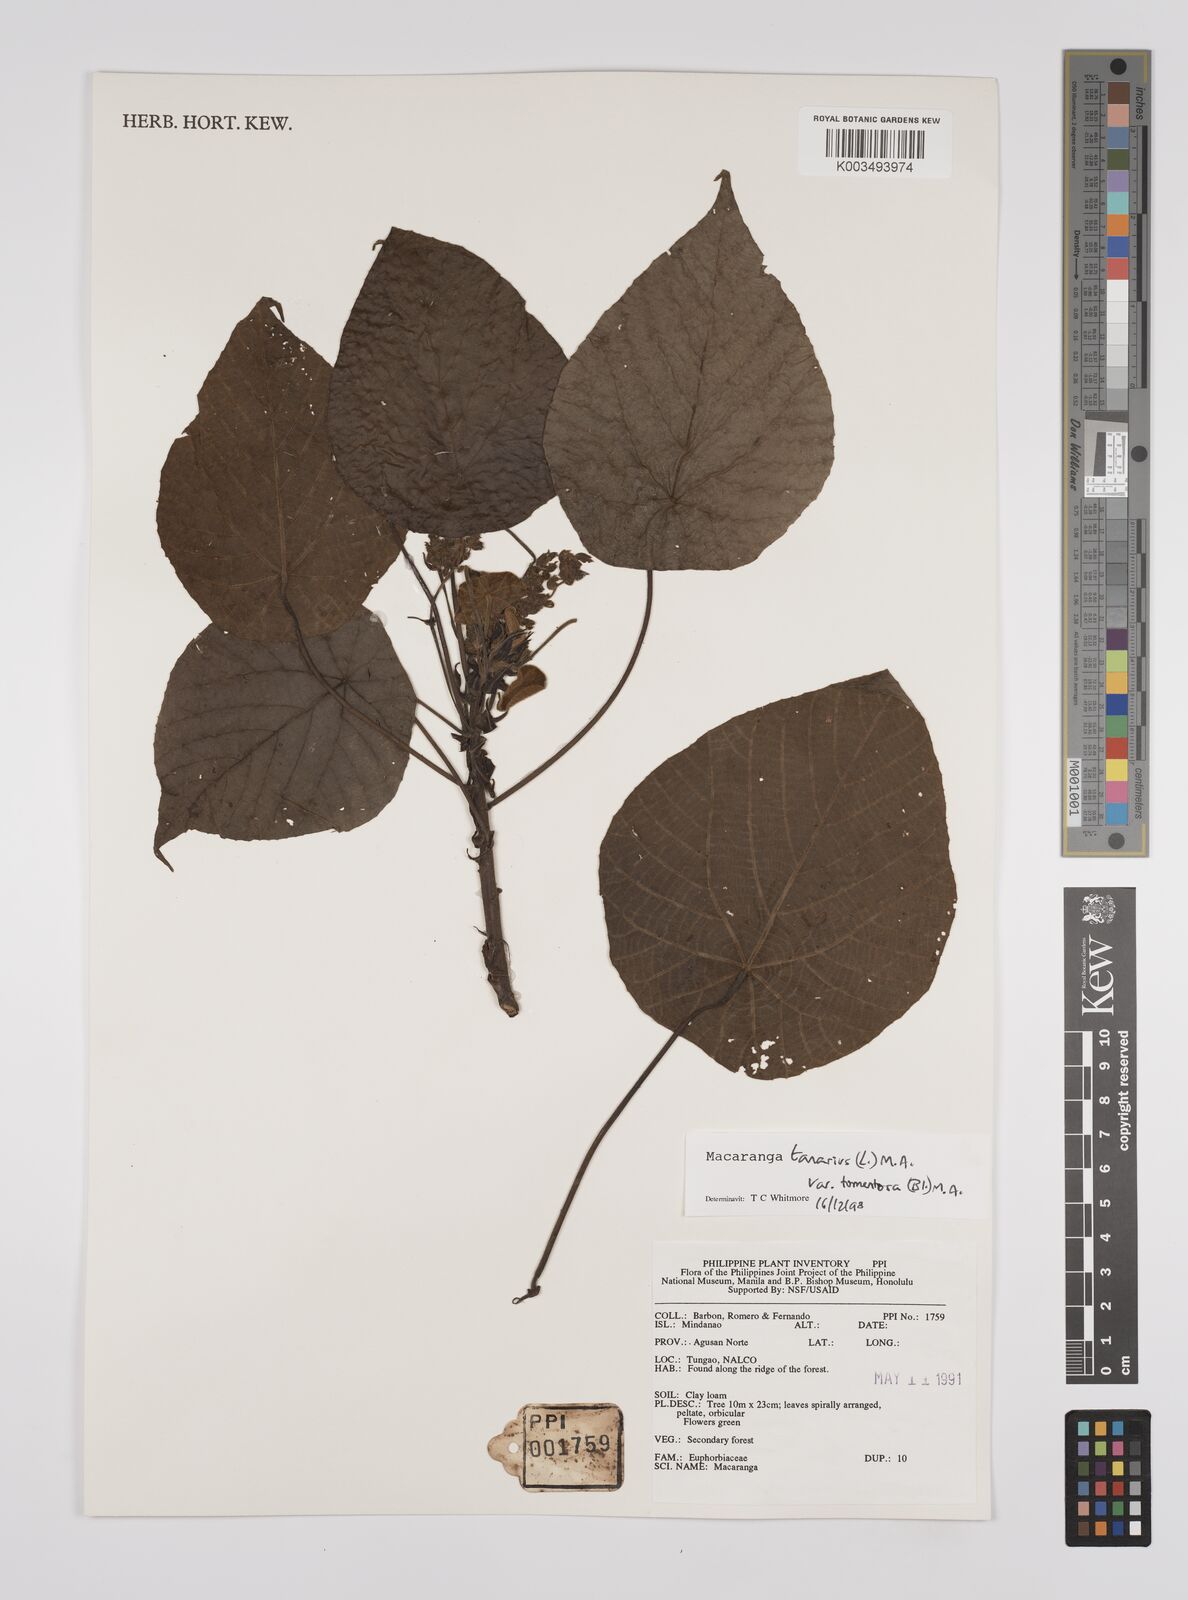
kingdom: Plantae
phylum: Tracheophyta
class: Magnoliopsida
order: Malpighiales
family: Euphorbiaceae
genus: Macaranga
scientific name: Macaranga tanarius
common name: Parasol leaf tree
